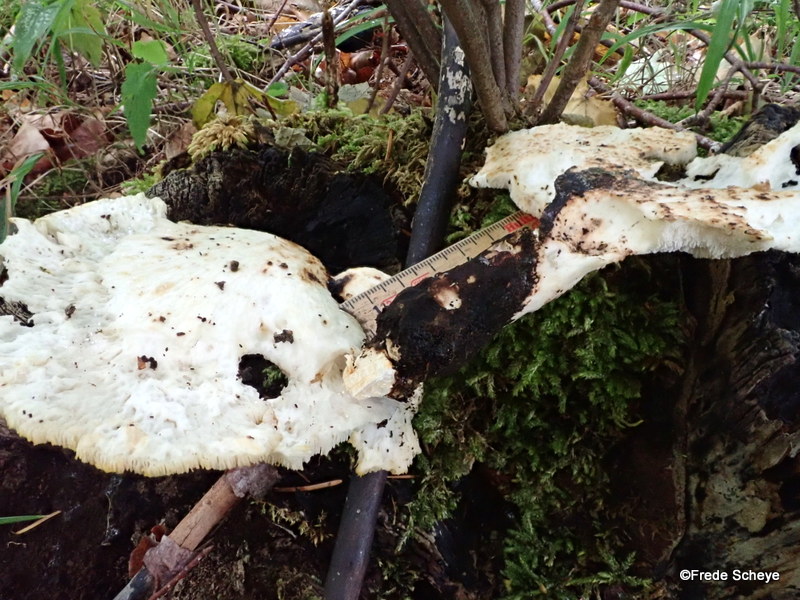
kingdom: Fungi
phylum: Basidiomycota
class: Agaricomycetes
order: Polyporales
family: Polyporaceae
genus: Cerioporus
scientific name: Cerioporus squamosus
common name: skællet stilkporesvamp
